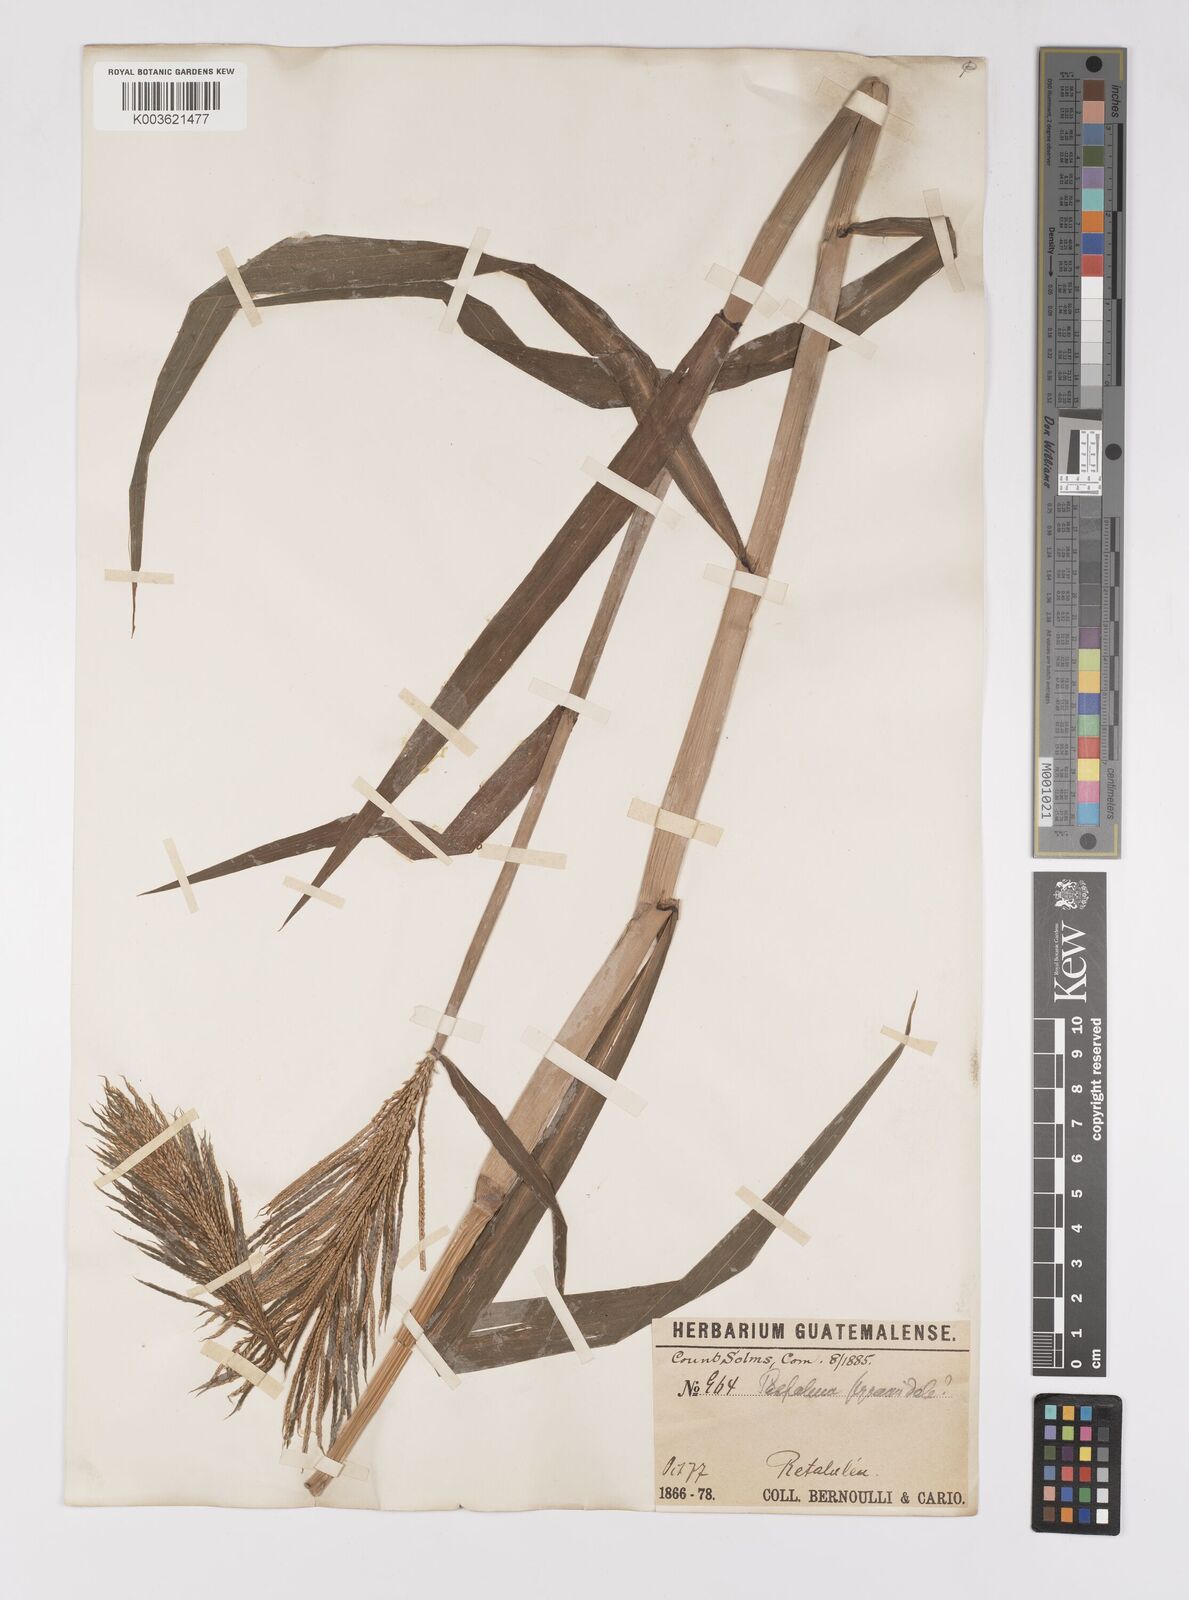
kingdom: Plantae
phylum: Tracheophyta
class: Liliopsida
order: Poales
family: Poaceae
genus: Paspalum
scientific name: Paspalum repens
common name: Water paspalum
